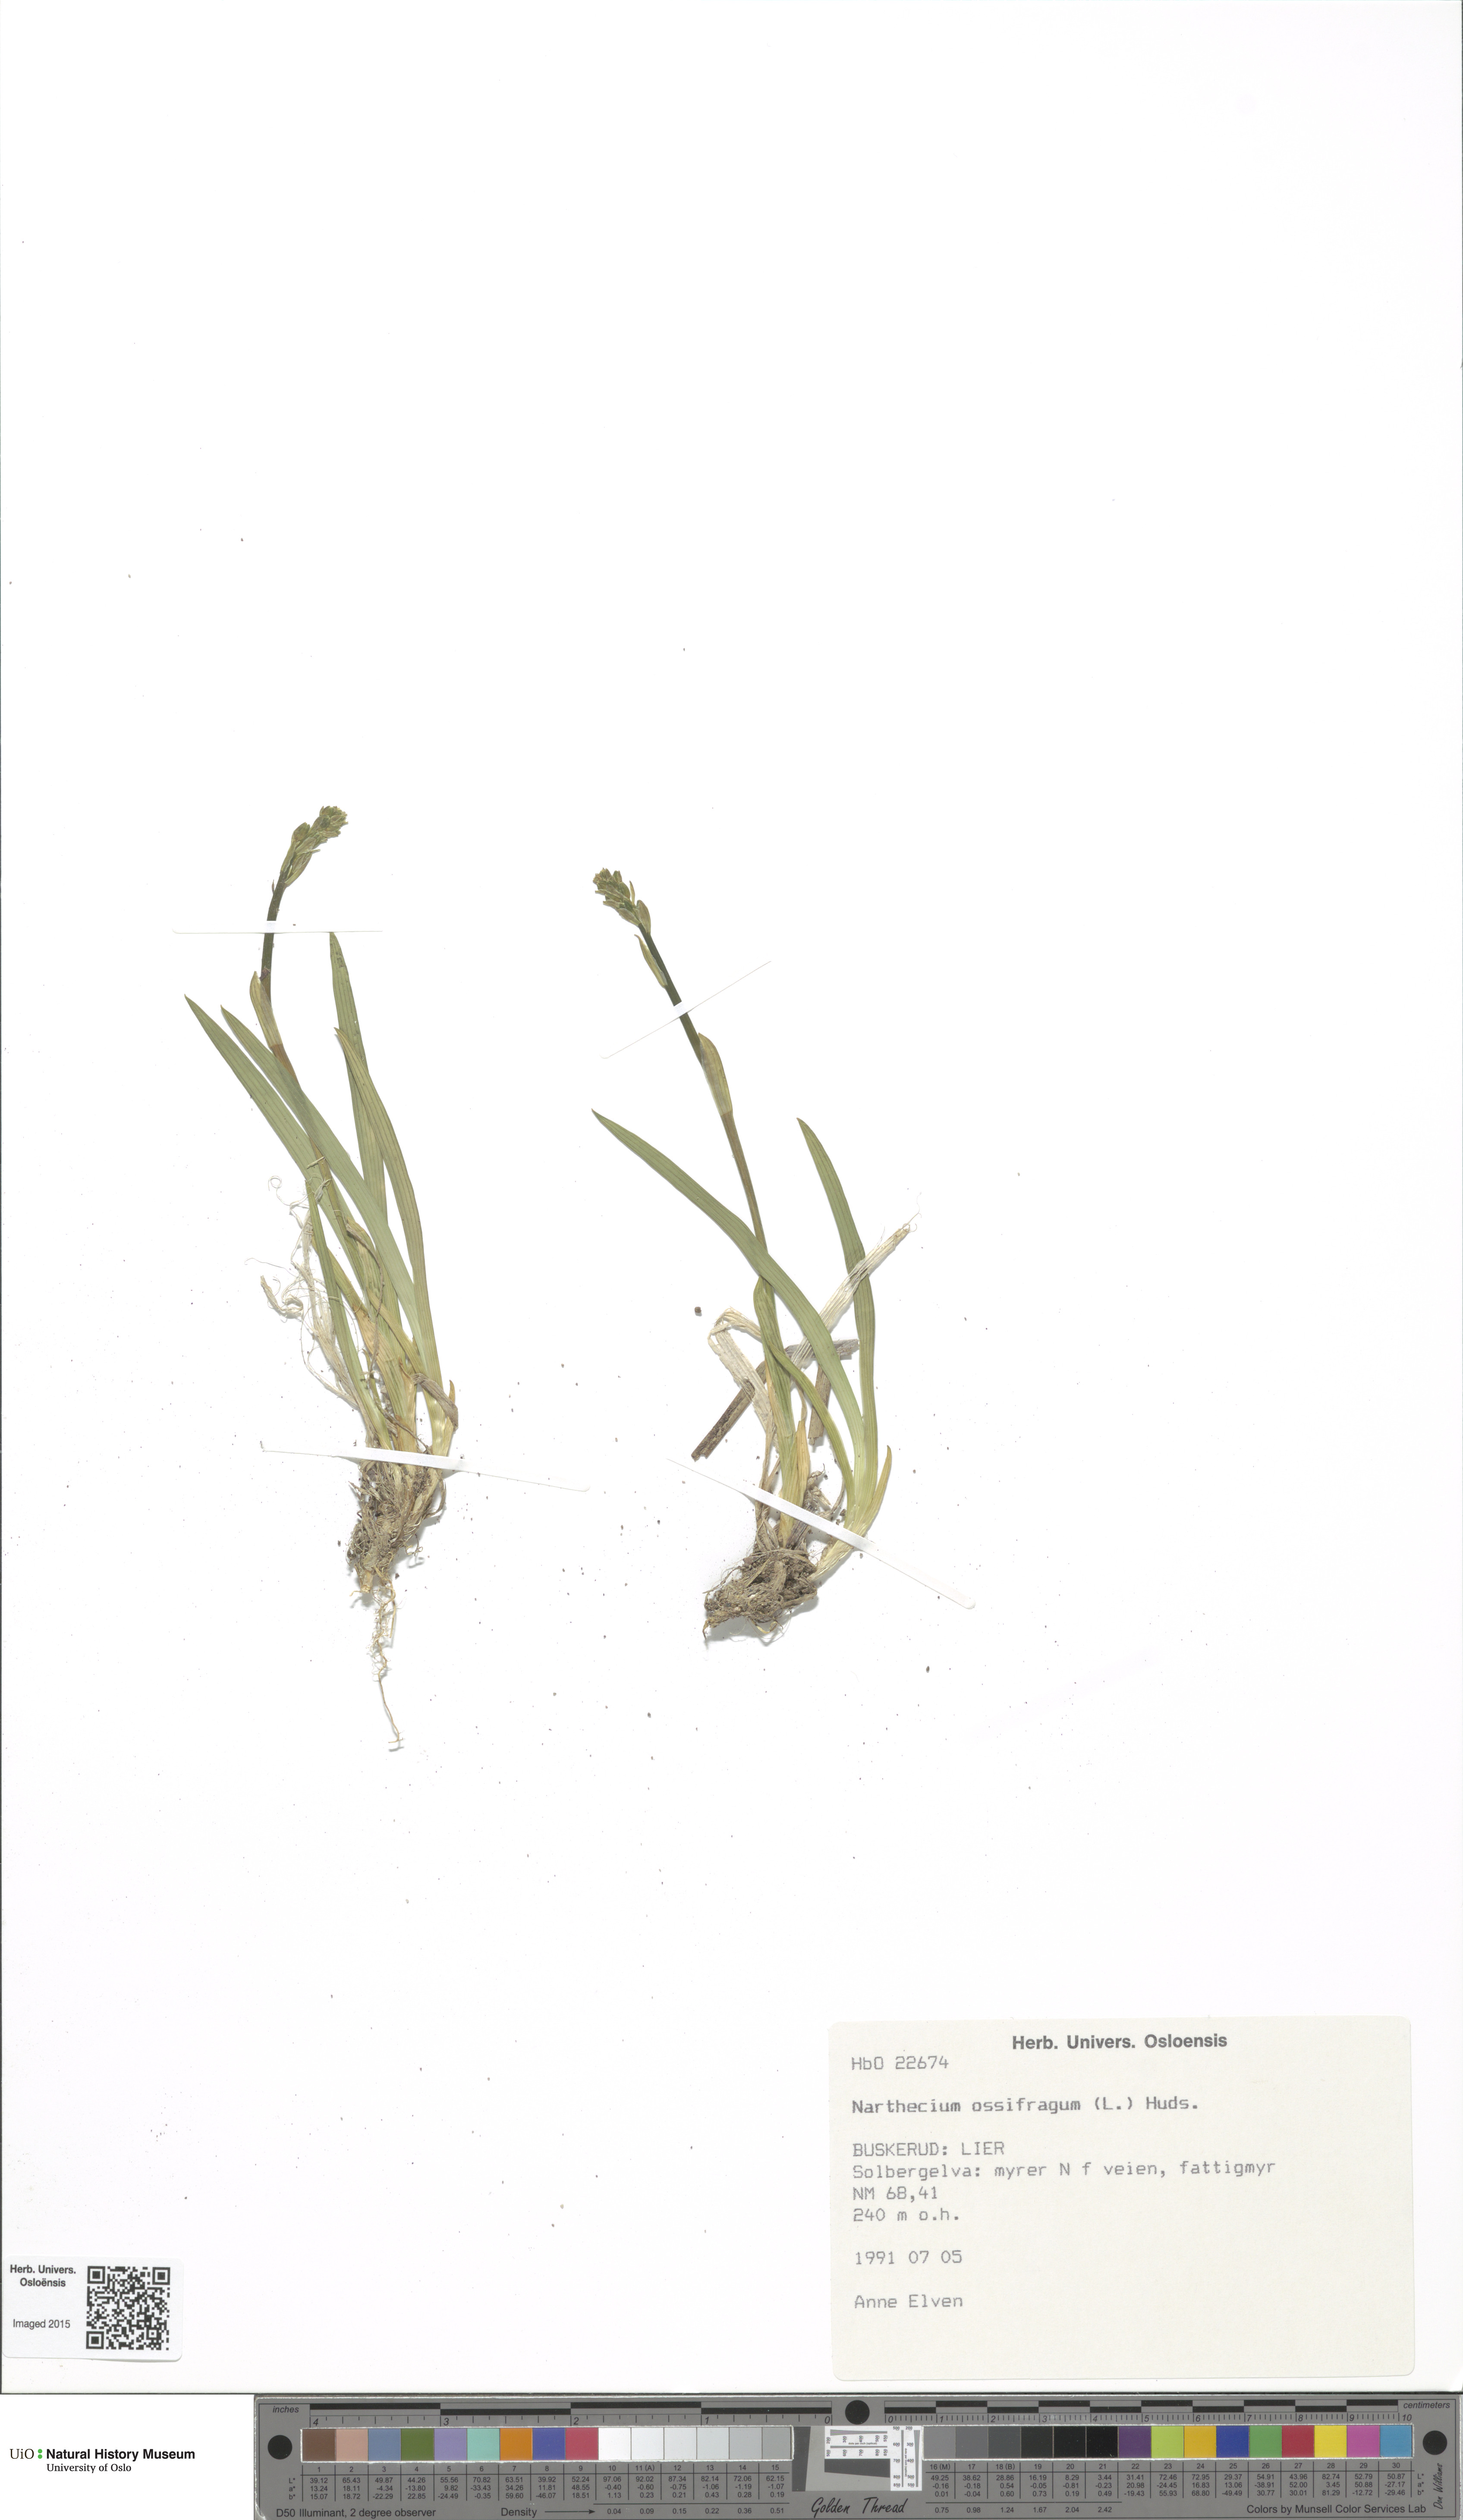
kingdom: Plantae
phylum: Tracheophyta
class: Liliopsida
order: Dioscoreales
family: Nartheciaceae
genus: Narthecium
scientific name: Narthecium ossifragum
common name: Bog asphodel
